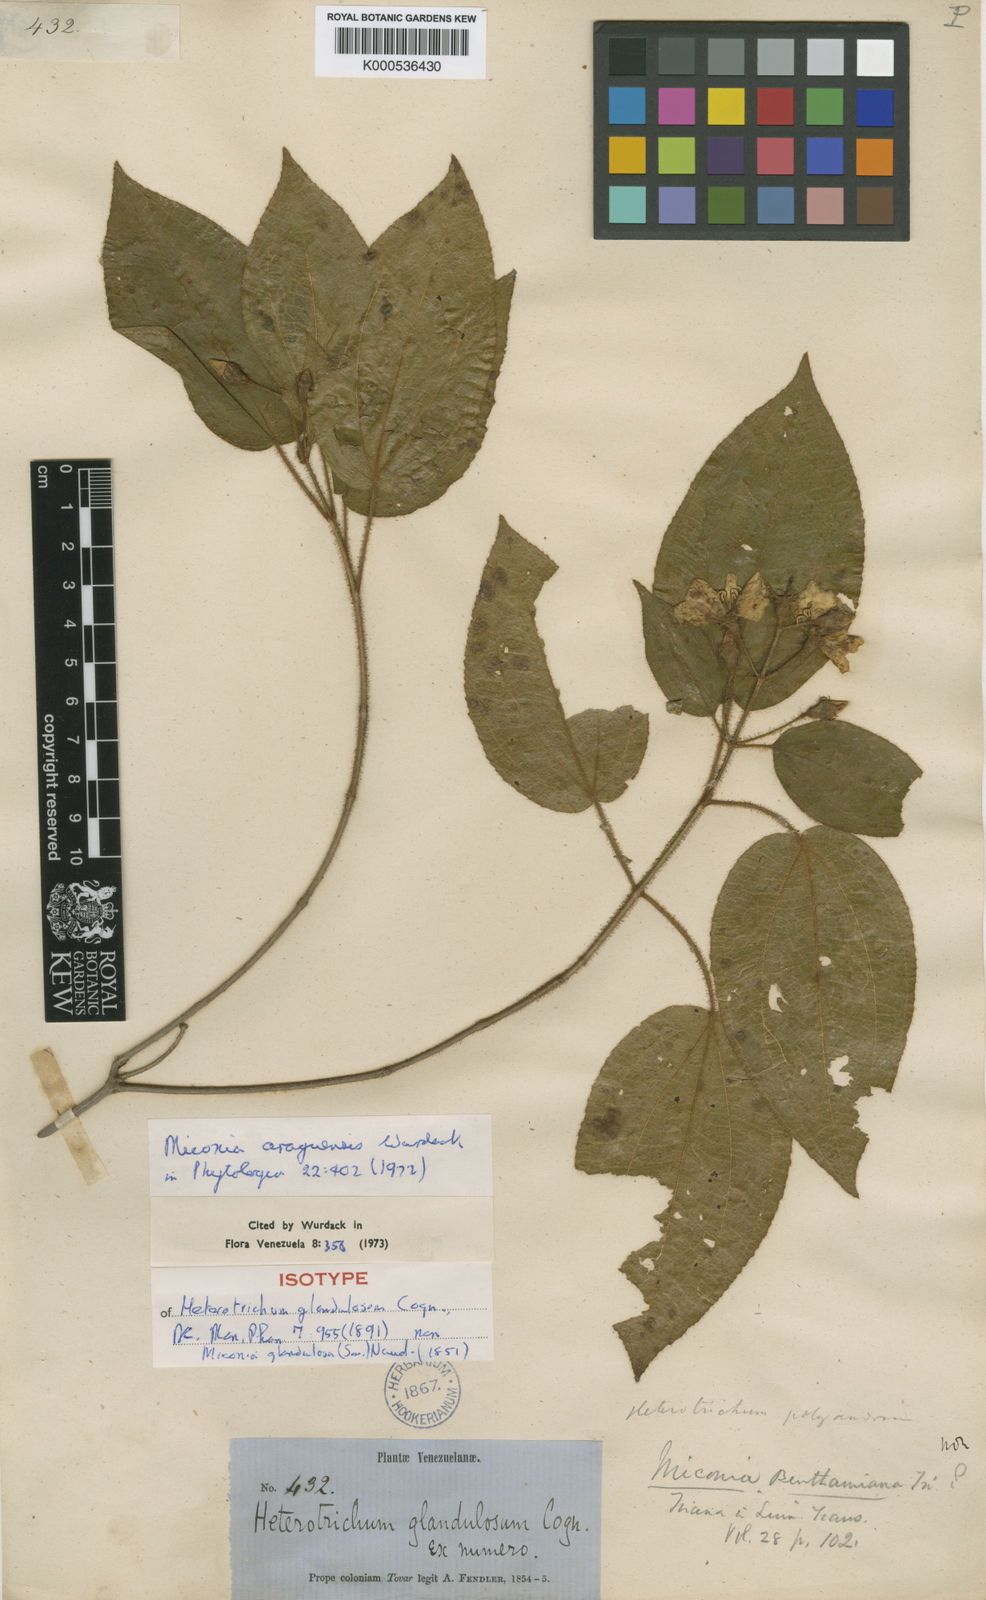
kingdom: Plantae
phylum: Tracheophyta
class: Magnoliopsida
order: Myrtales
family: Melastomataceae
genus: Miconia
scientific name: Miconia araguensis
